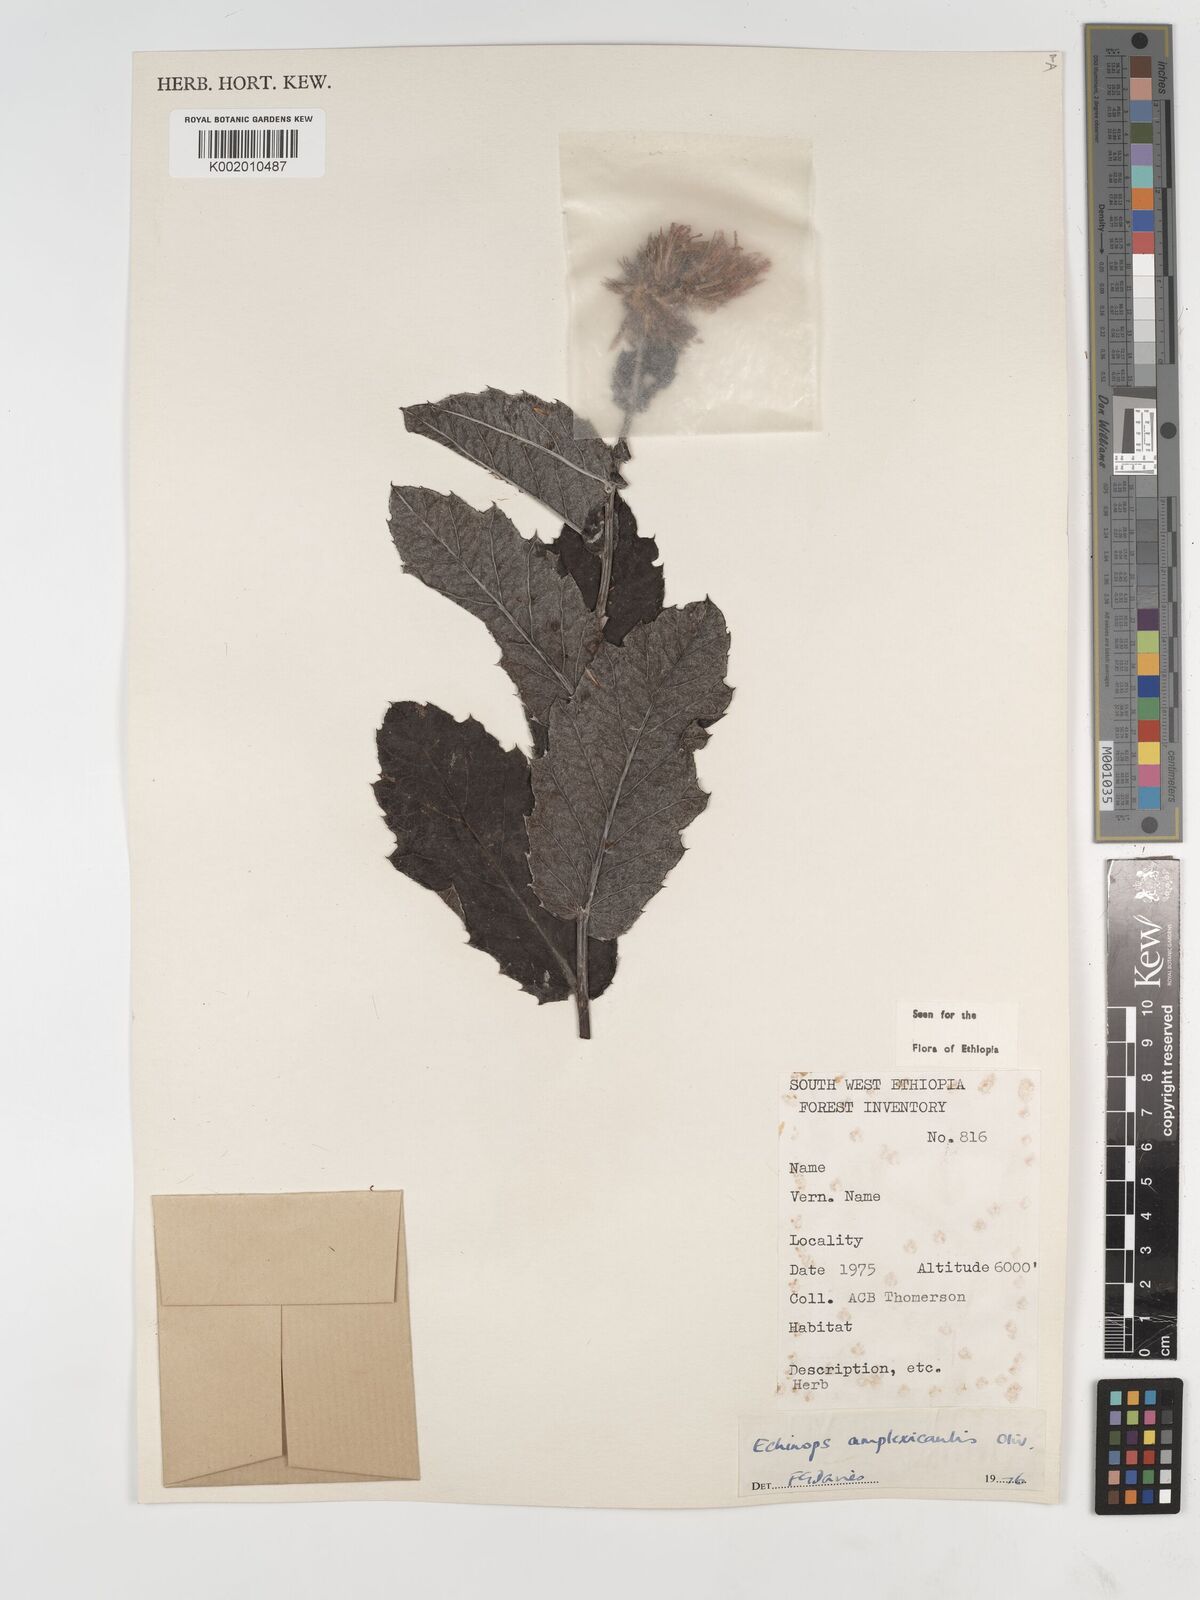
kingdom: Plantae
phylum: Tracheophyta
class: Magnoliopsida
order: Asterales
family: Asteraceae
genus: Echinops
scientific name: Echinops amplexicaulis
